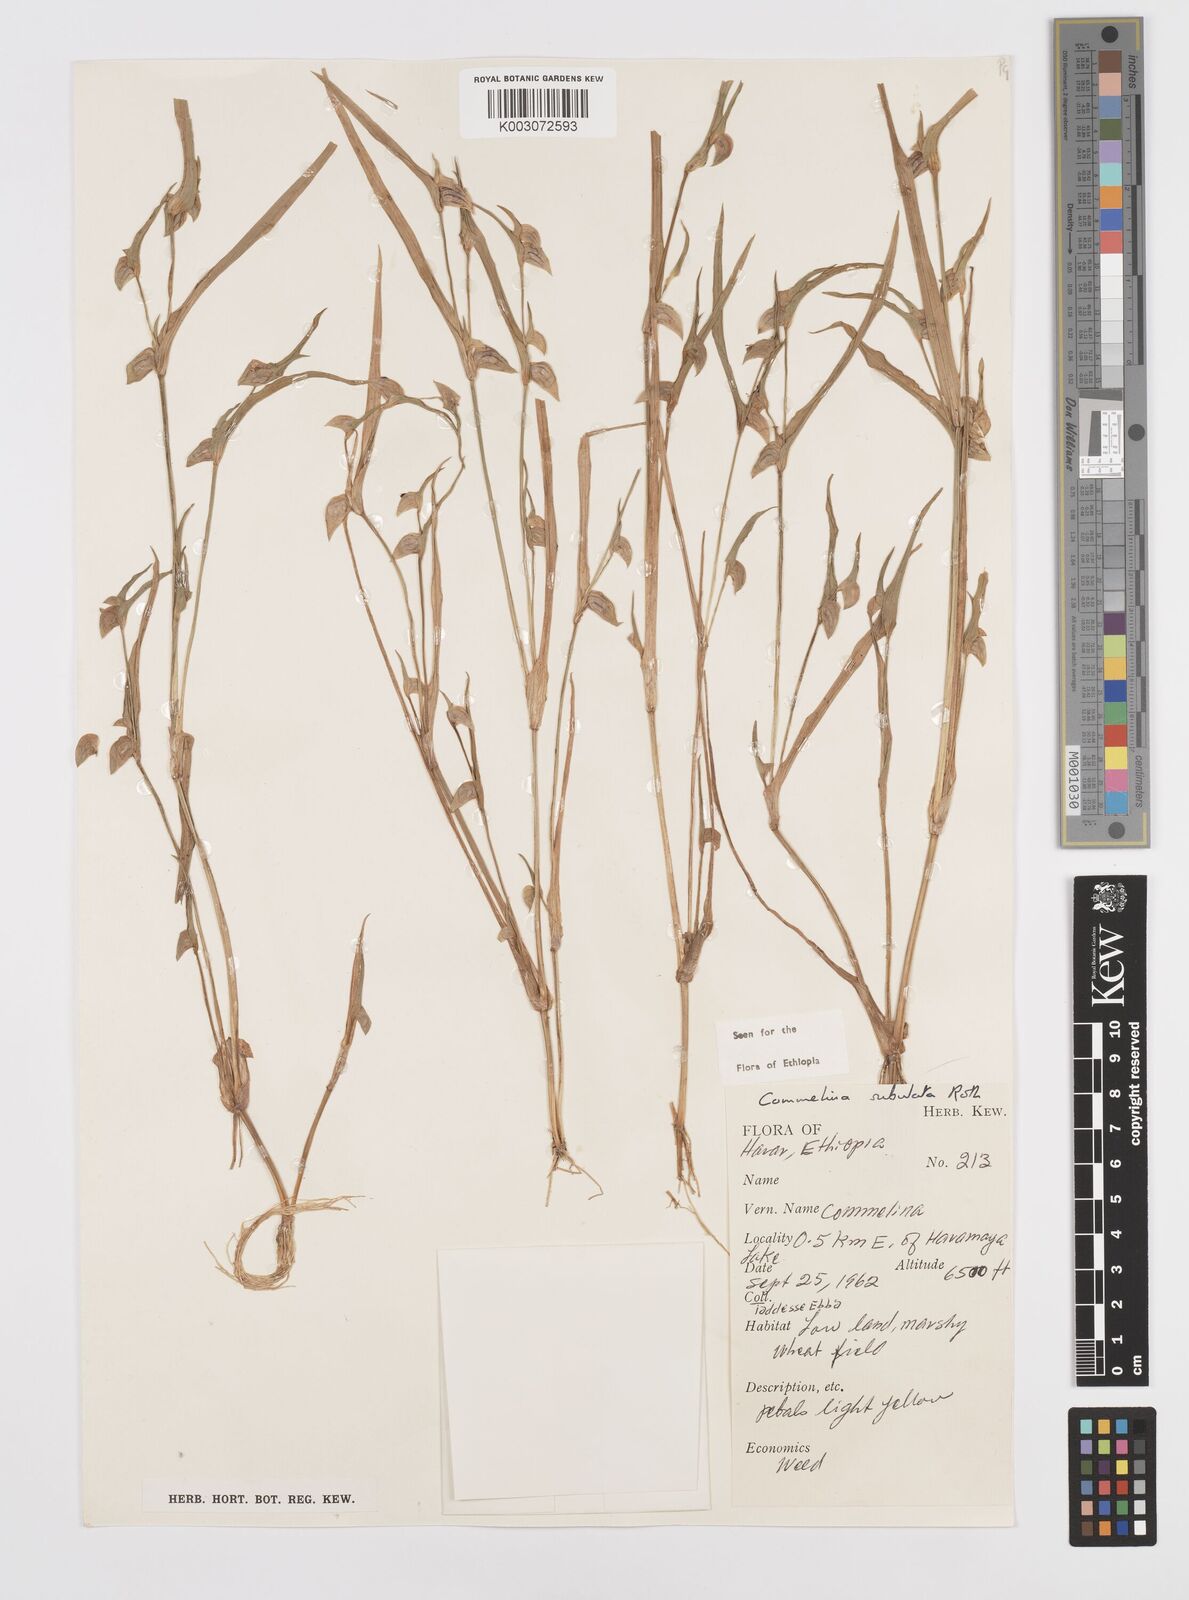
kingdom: Plantae
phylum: Tracheophyta
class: Liliopsida
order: Commelinales
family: Commelinaceae
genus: Commelina
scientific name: Commelina subulata
